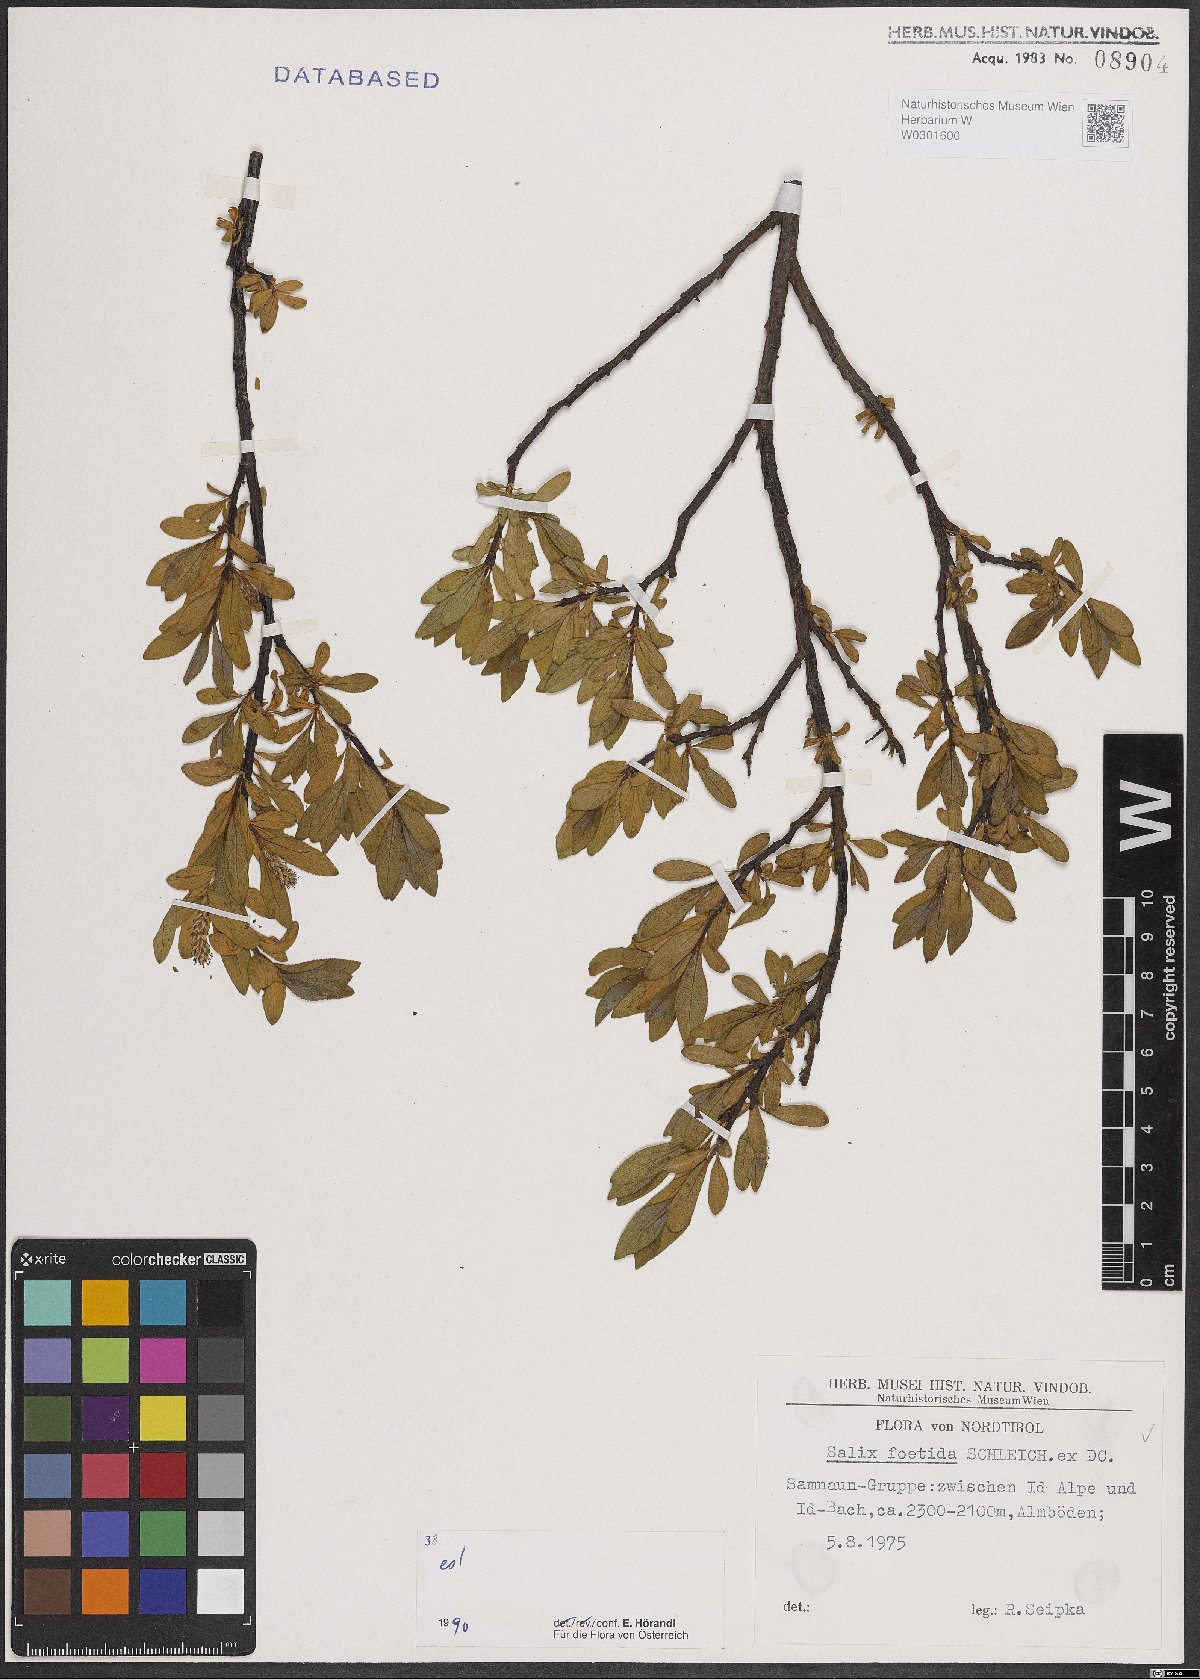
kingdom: Plantae
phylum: Tracheophyta
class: Magnoliopsida
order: Malpighiales
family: Salicaceae
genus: Salix
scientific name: Salix foetida
